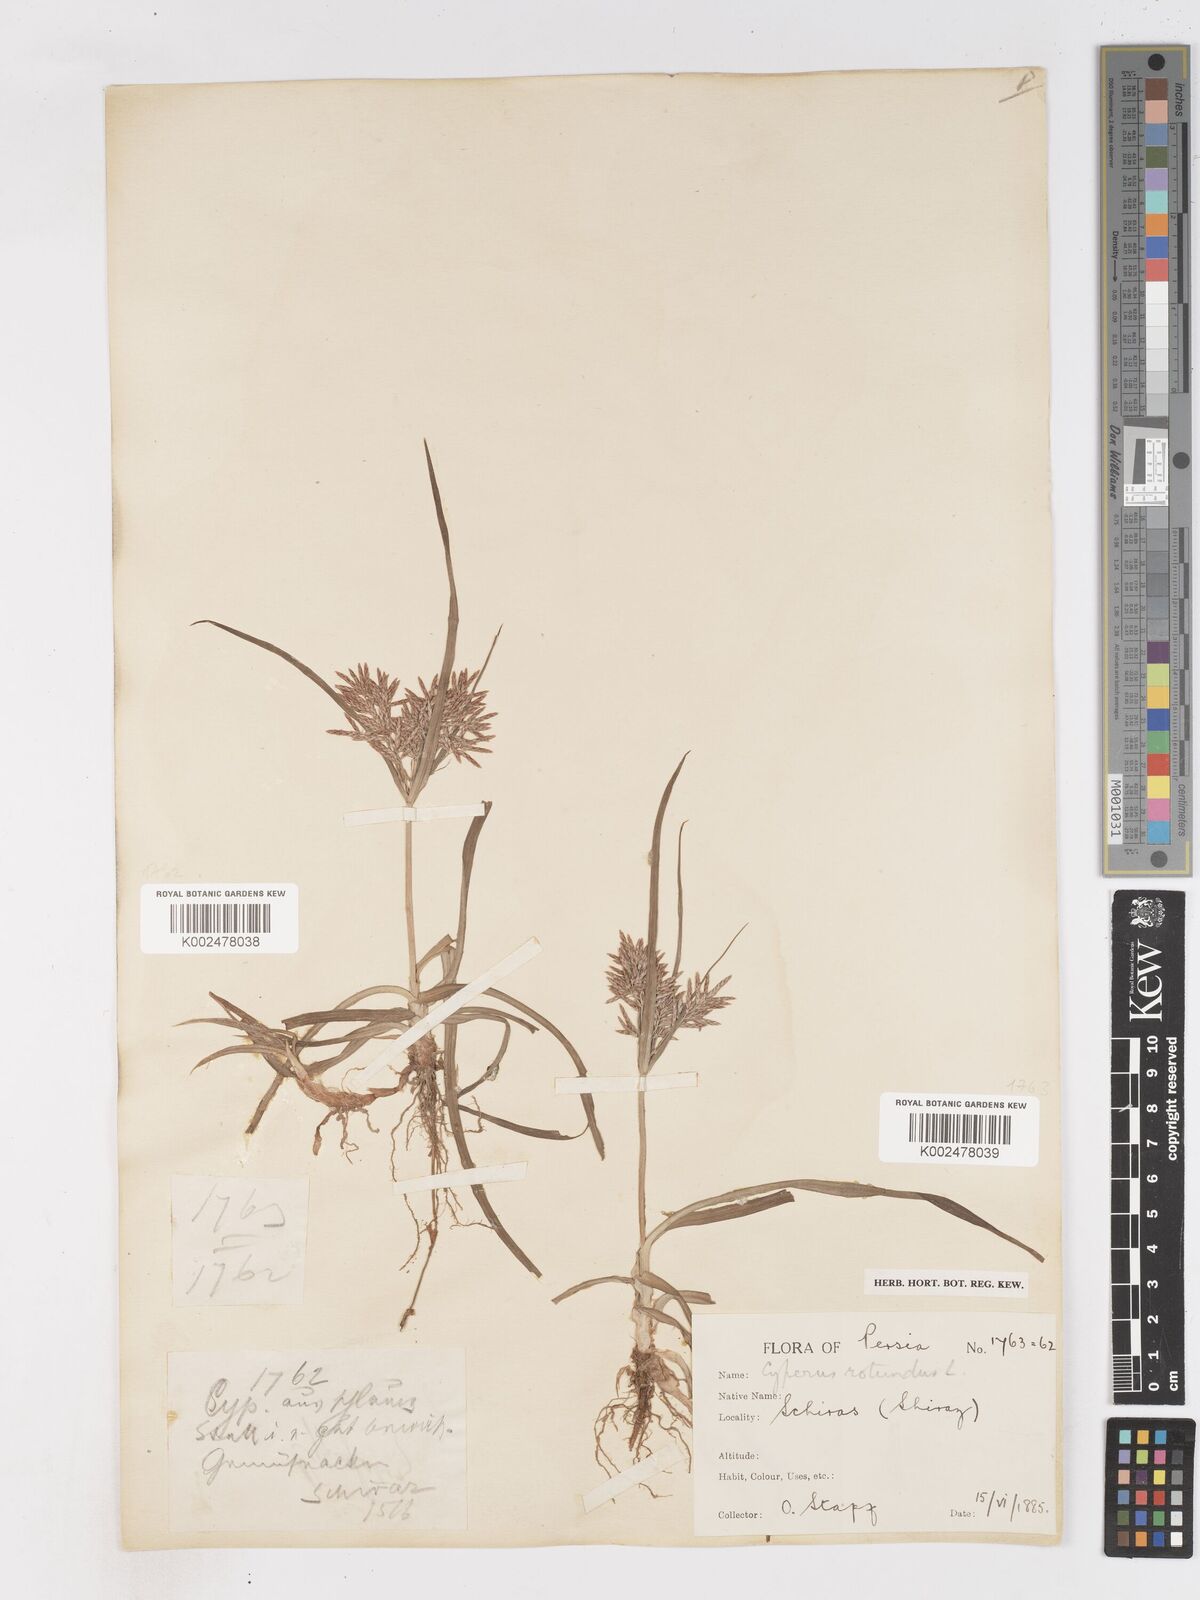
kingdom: Plantae
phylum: Tracheophyta
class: Liliopsida
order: Poales
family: Cyperaceae
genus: Cyperus
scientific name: Cyperus rotundus
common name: Nutgrass
